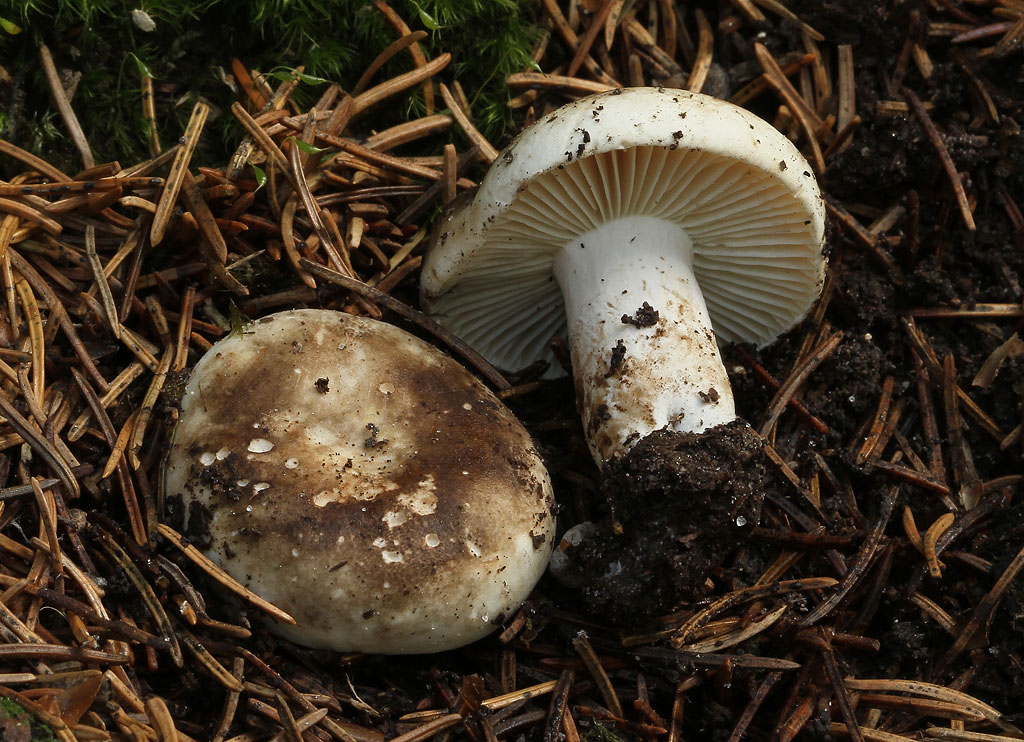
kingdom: Fungi
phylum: Basidiomycota
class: Agaricomycetes
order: Russulales
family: Russulaceae
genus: Russula
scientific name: Russula adusta
